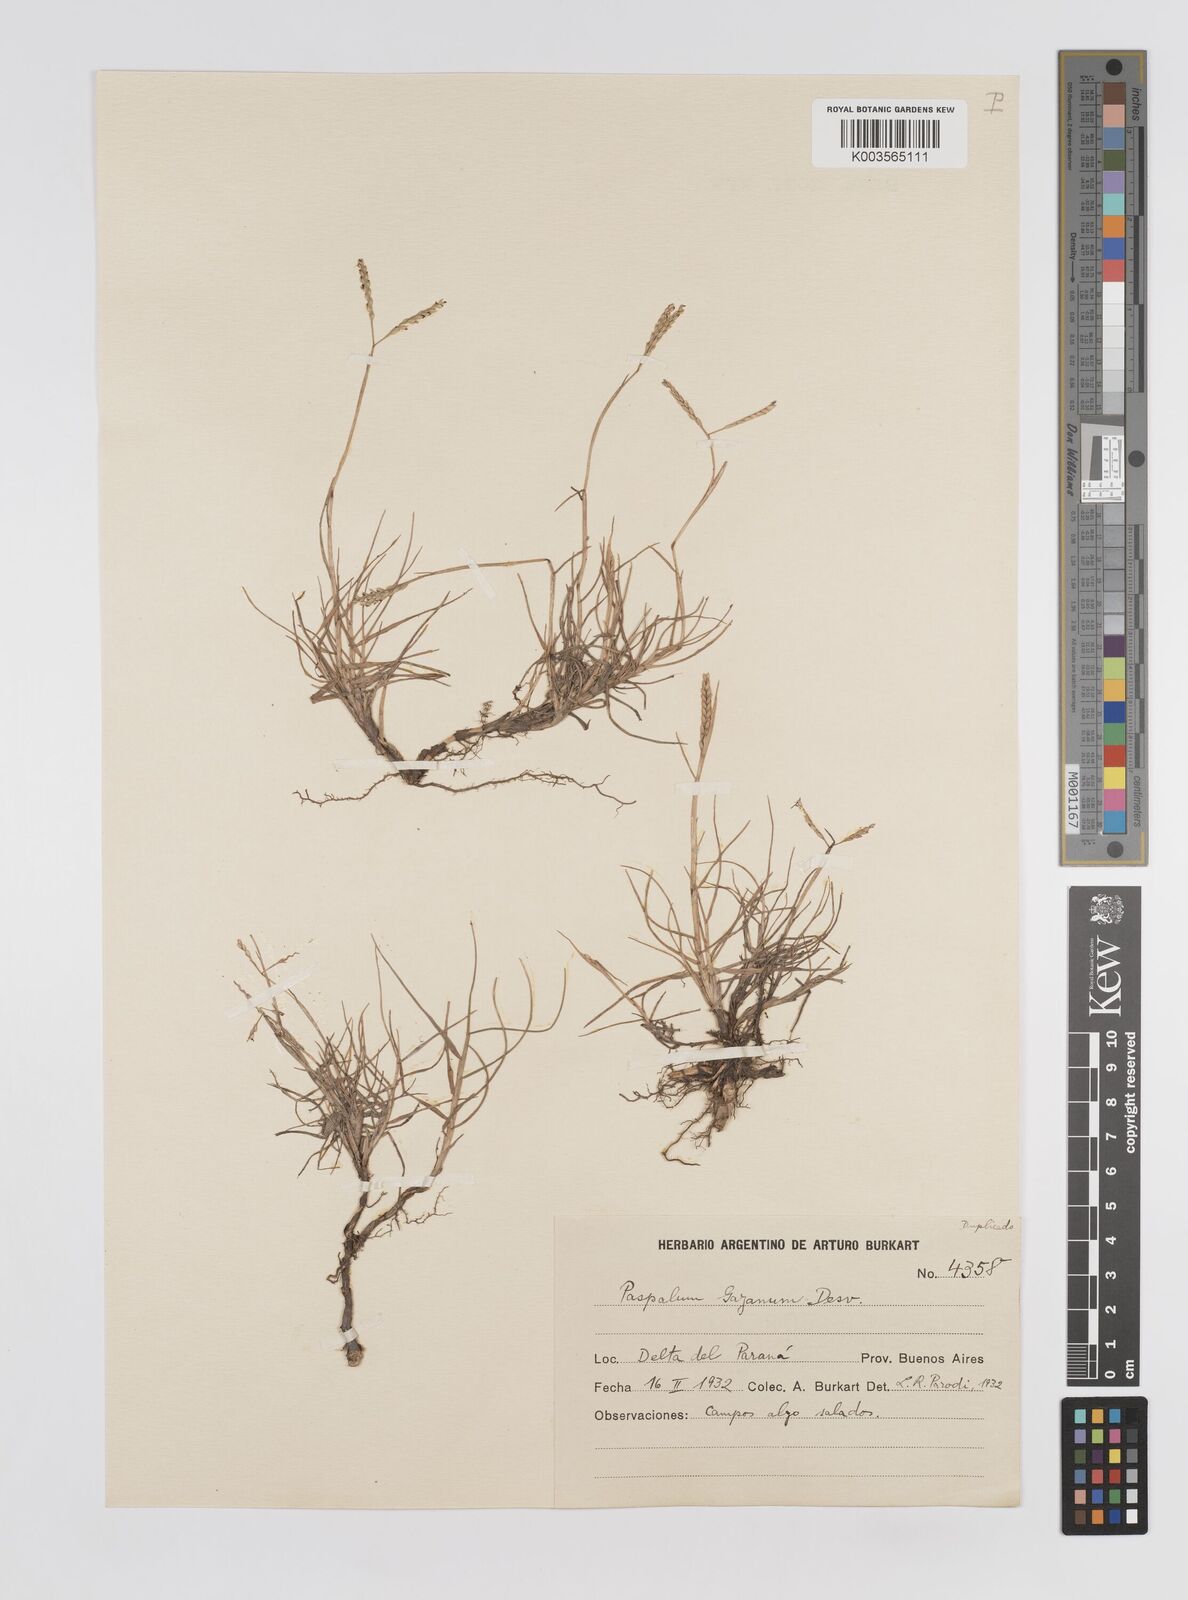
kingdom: Plantae
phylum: Tracheophyta
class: Liliopsida
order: Poales
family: Poaceae
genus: Paspalum
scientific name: Paspalum vaginatum
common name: Seashore paspalum
